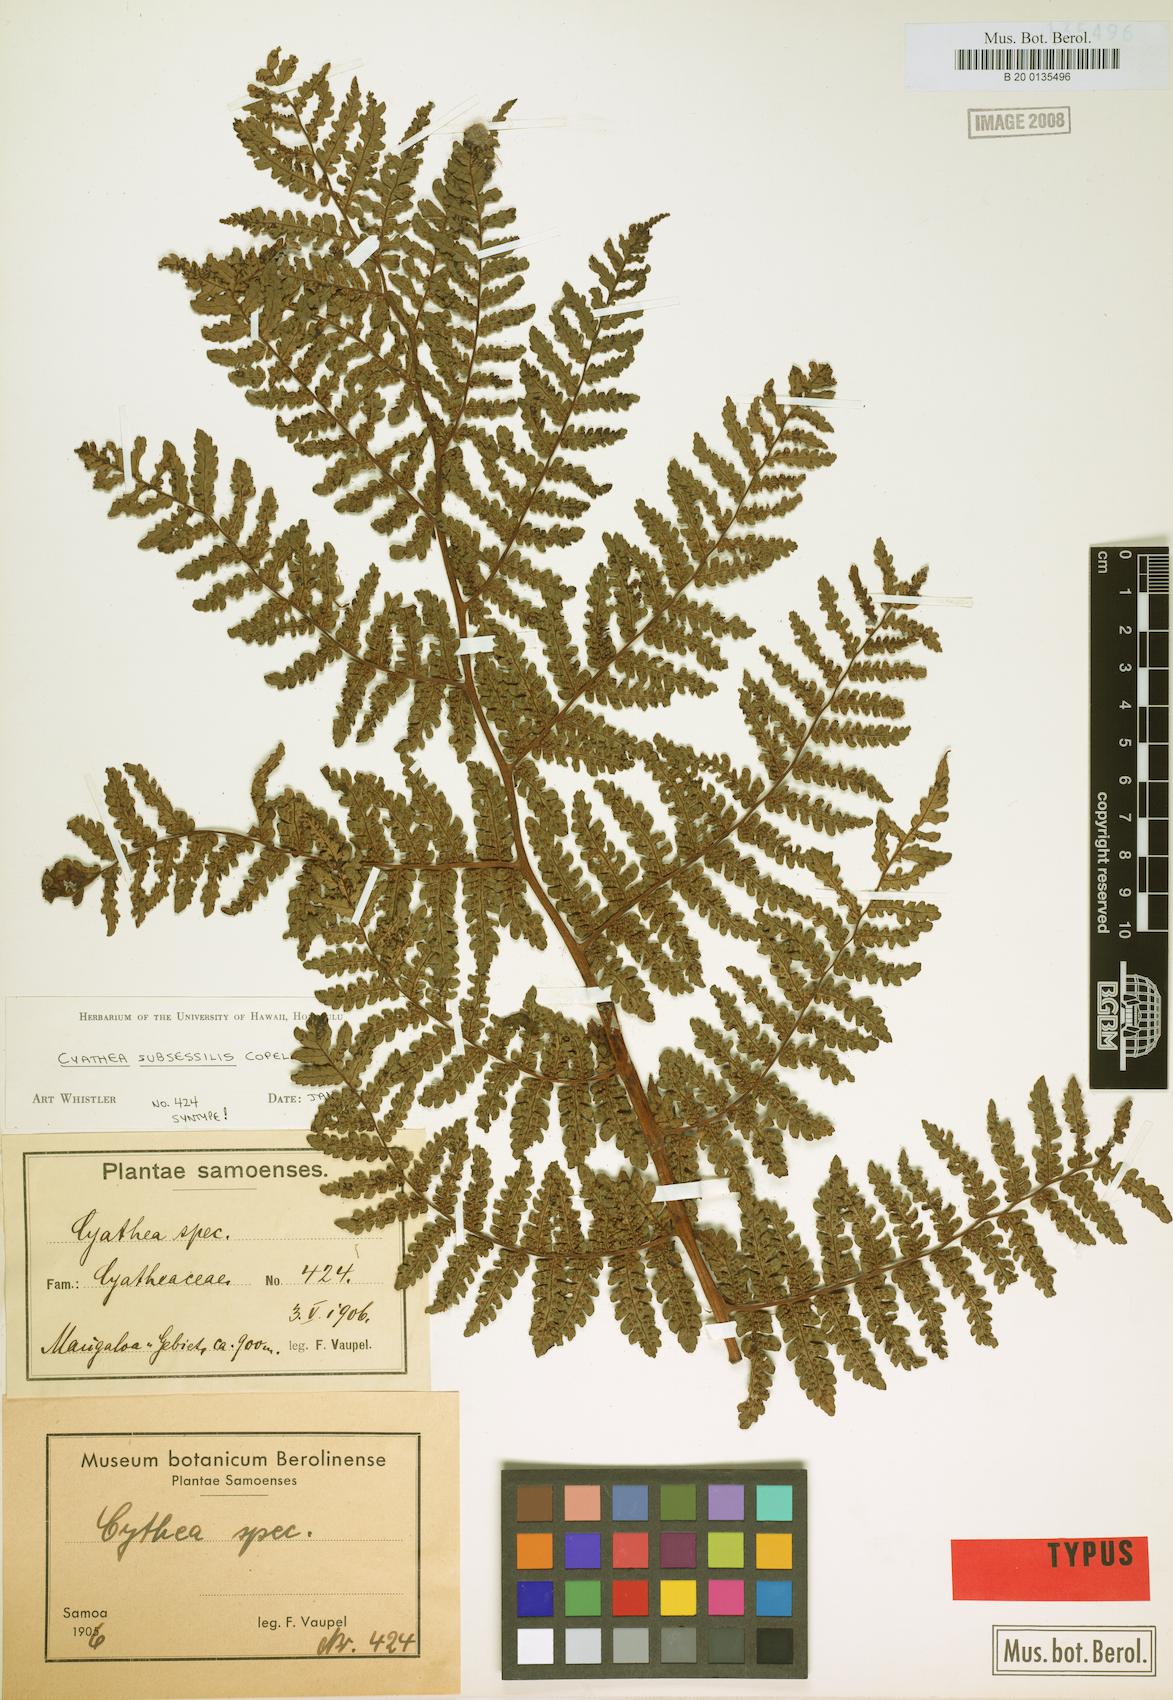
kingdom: Plantae
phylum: Tracheophyta
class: Polypodiopsida
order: Cyatheales
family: Cyatheaceae
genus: Sphaeropteris
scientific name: Sphaeropteris subsessilis
